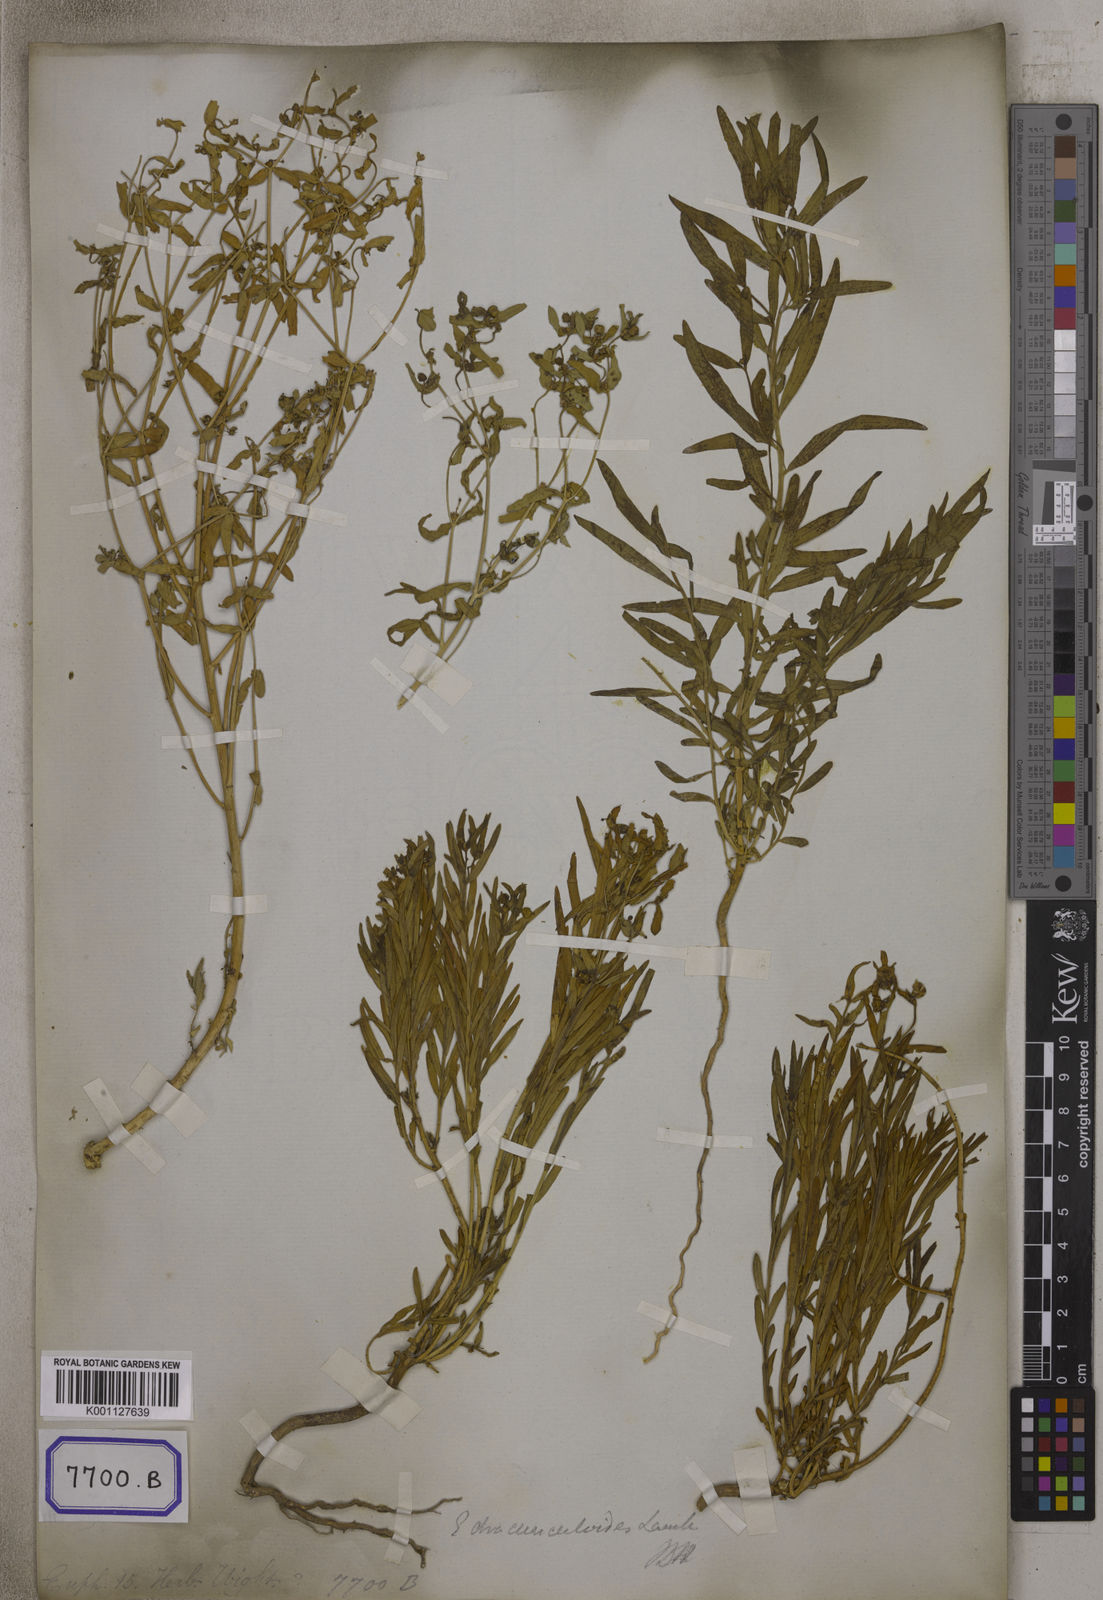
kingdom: Plantae
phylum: Tracheophyta
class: Magnoliopsida
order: Malpighiales
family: Euphorbiaceae
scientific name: Euphorbiaceae
